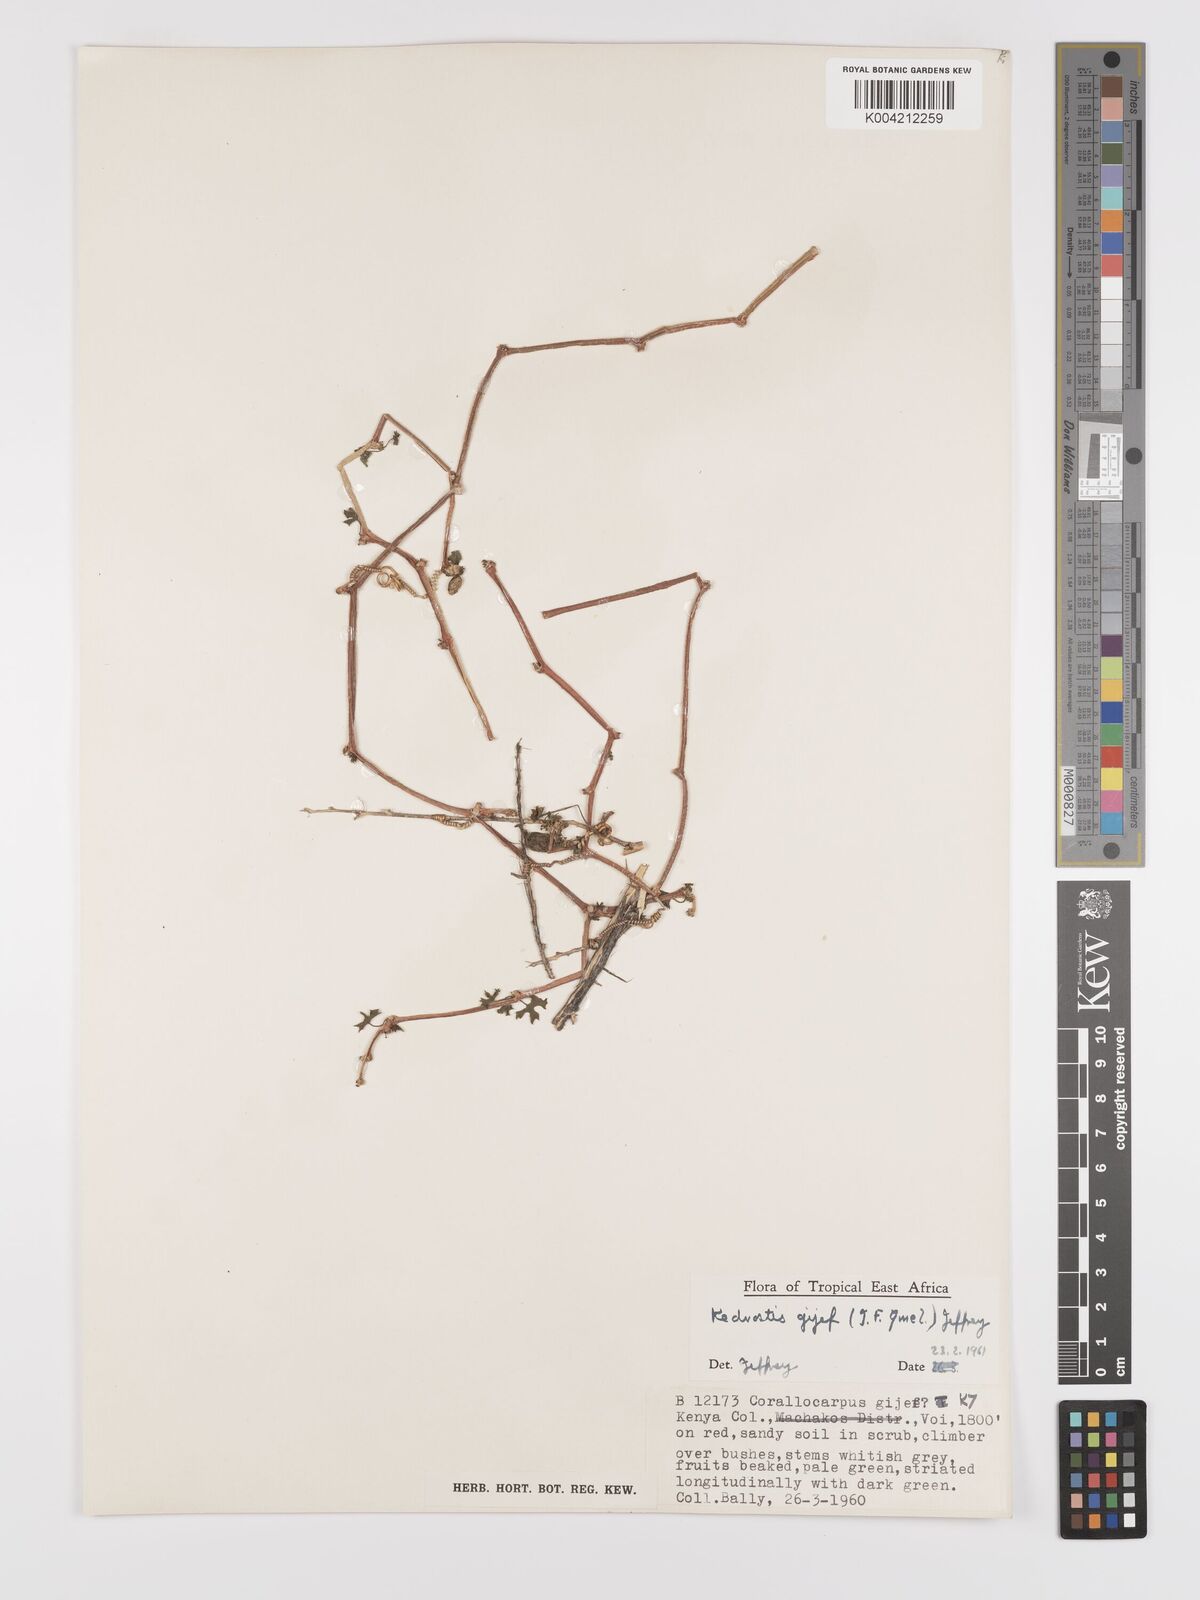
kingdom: Plantae
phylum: Tracheophyta
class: Magnoliopsida
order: Cucurbitales
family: Cucurbitaceae
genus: Kedrostis
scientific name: Kedrostis gijef
